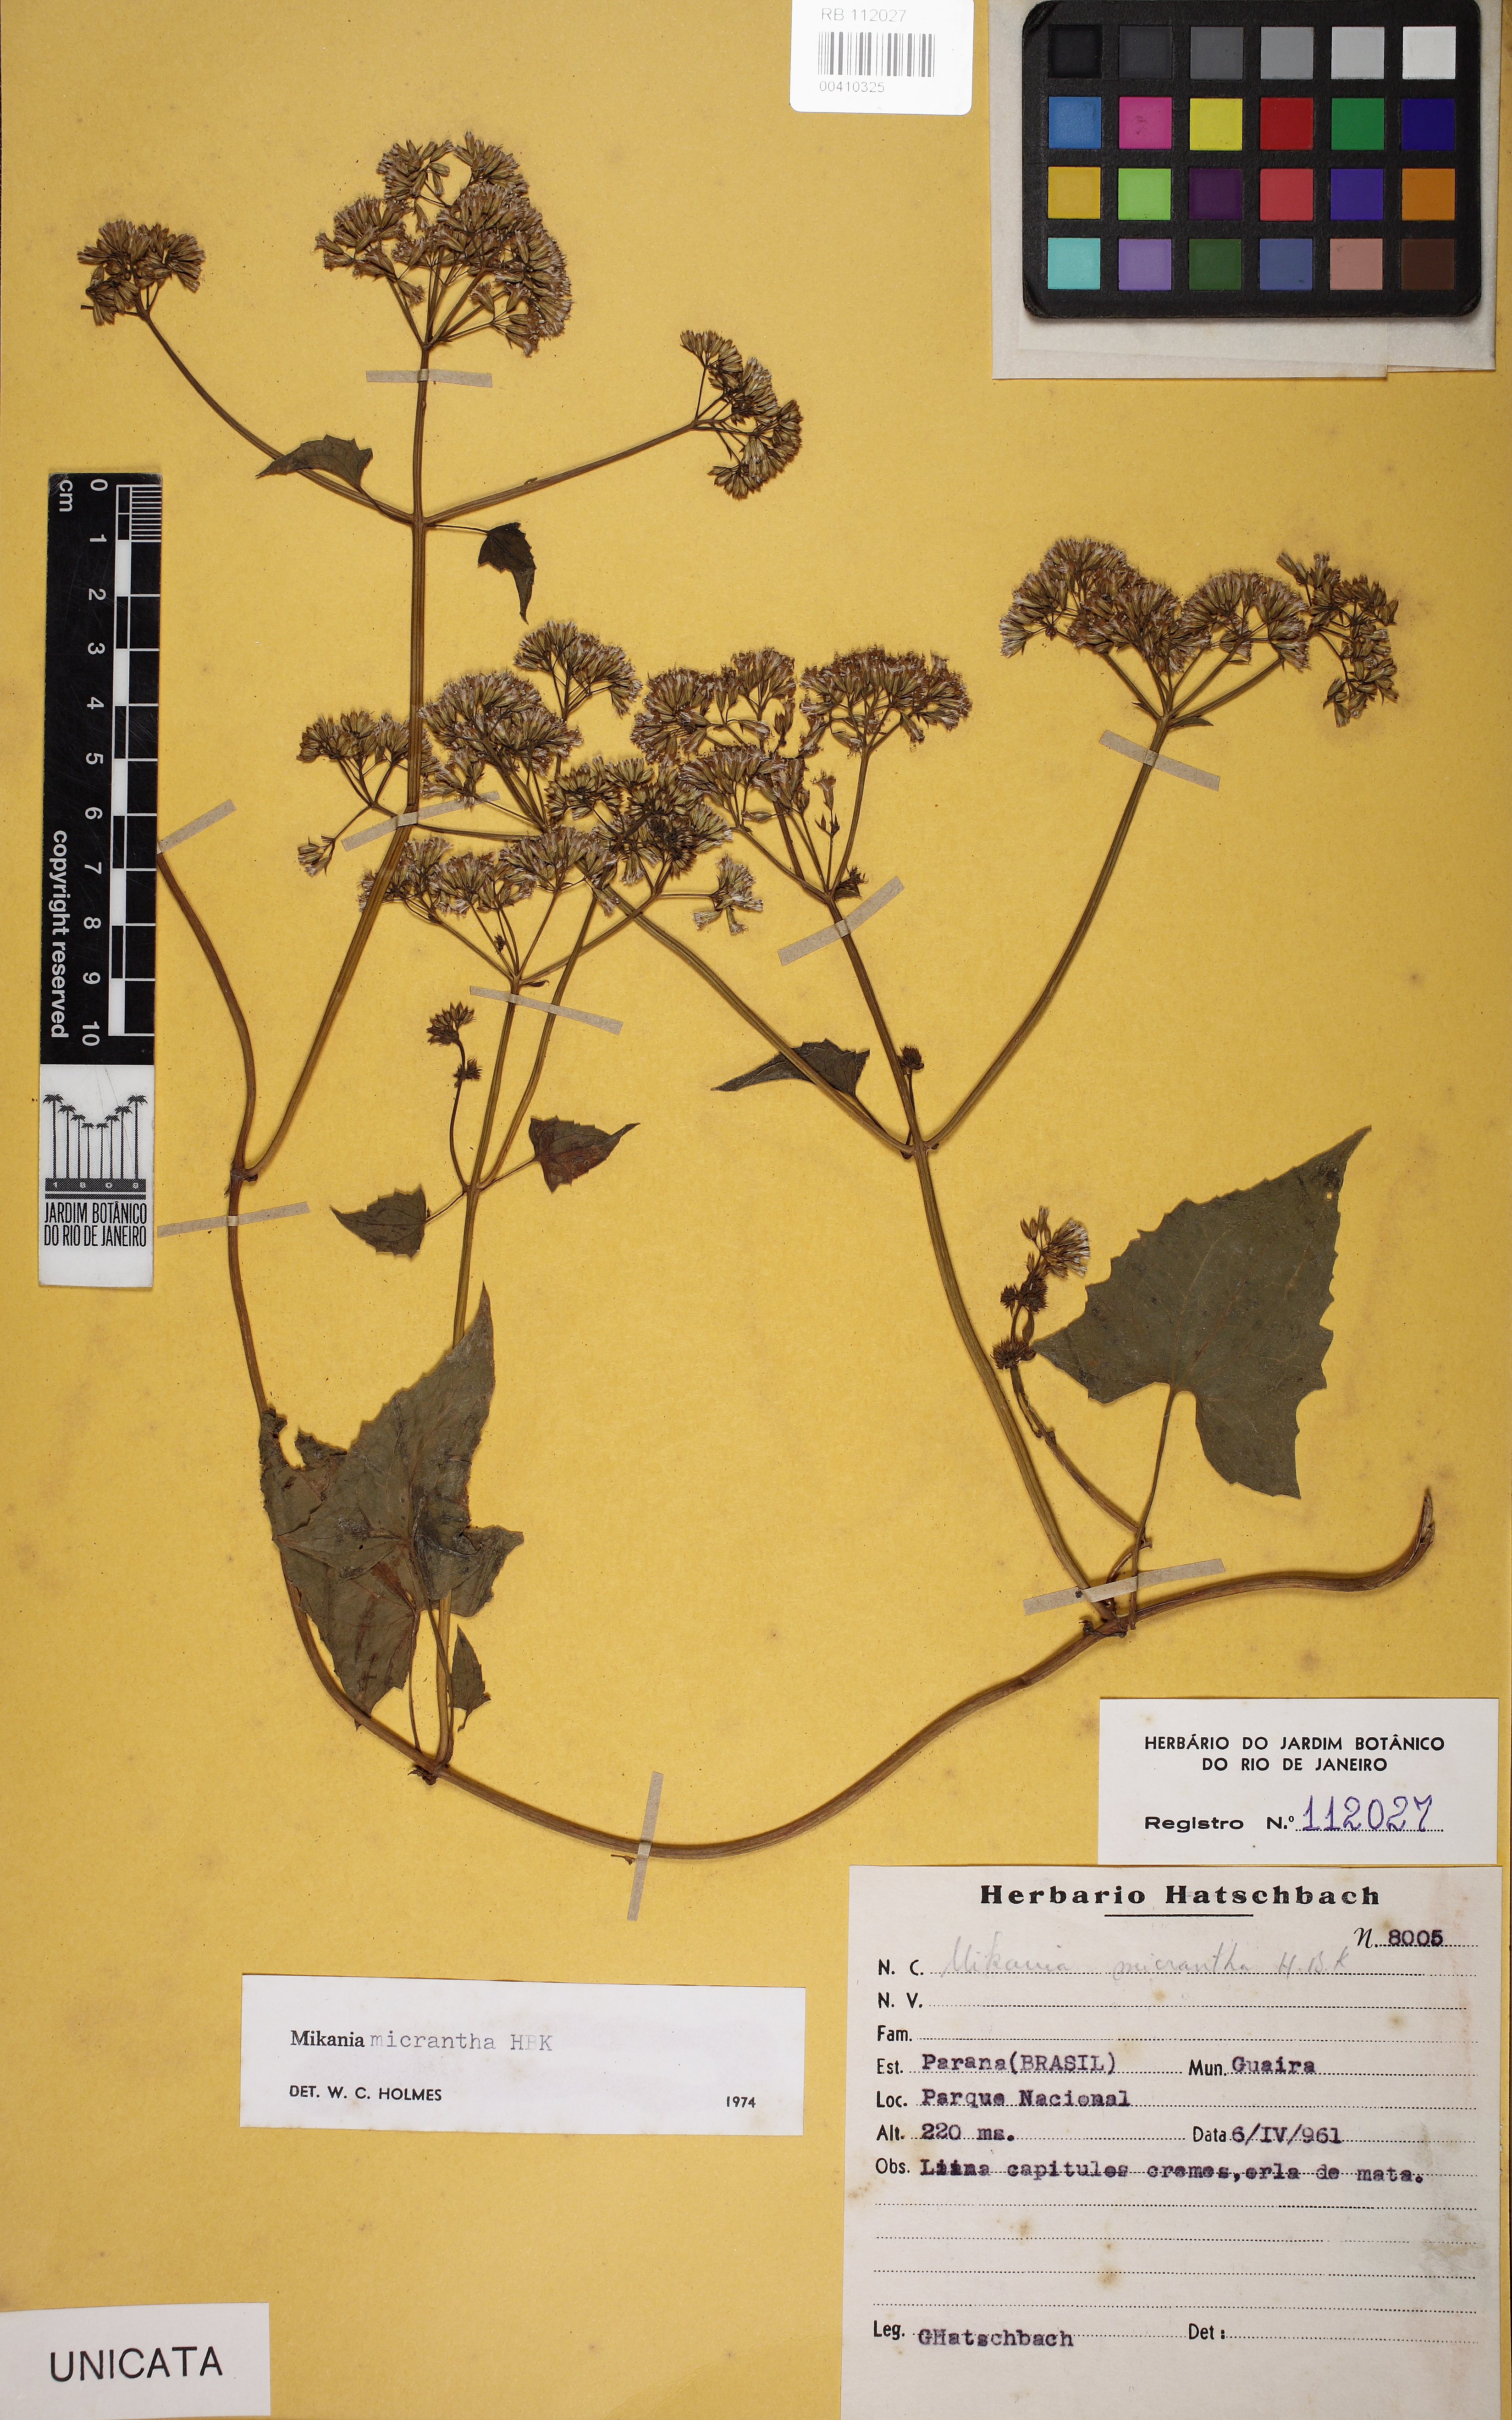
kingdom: Plantae
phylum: Tracheophyta
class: Magnoliopsida
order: Asterales
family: Asteraceae
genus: Mikania
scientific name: Mikania micrantha
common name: Mile-a-minute
